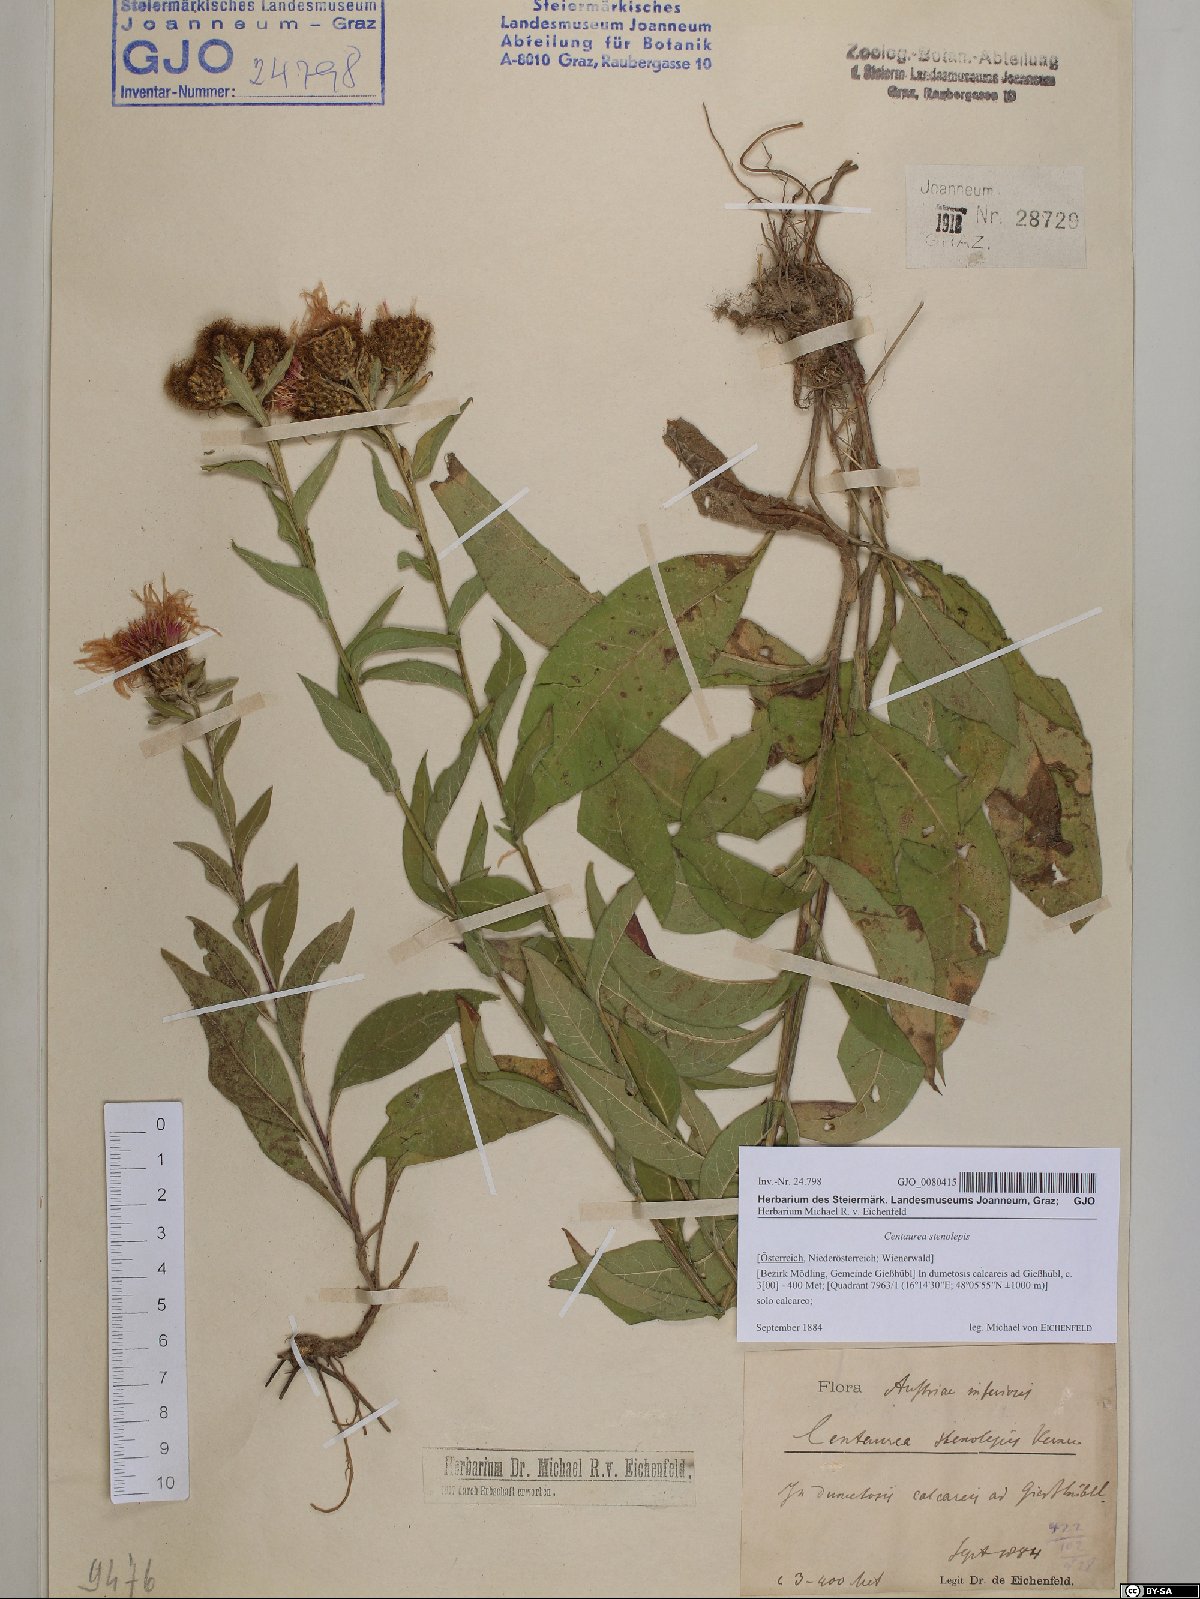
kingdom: Plantae
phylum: Tracheophyta
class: Magnoliopsida
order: Asterales
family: Asteraceae
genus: Centaurea
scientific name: Centaurea stenolepis
